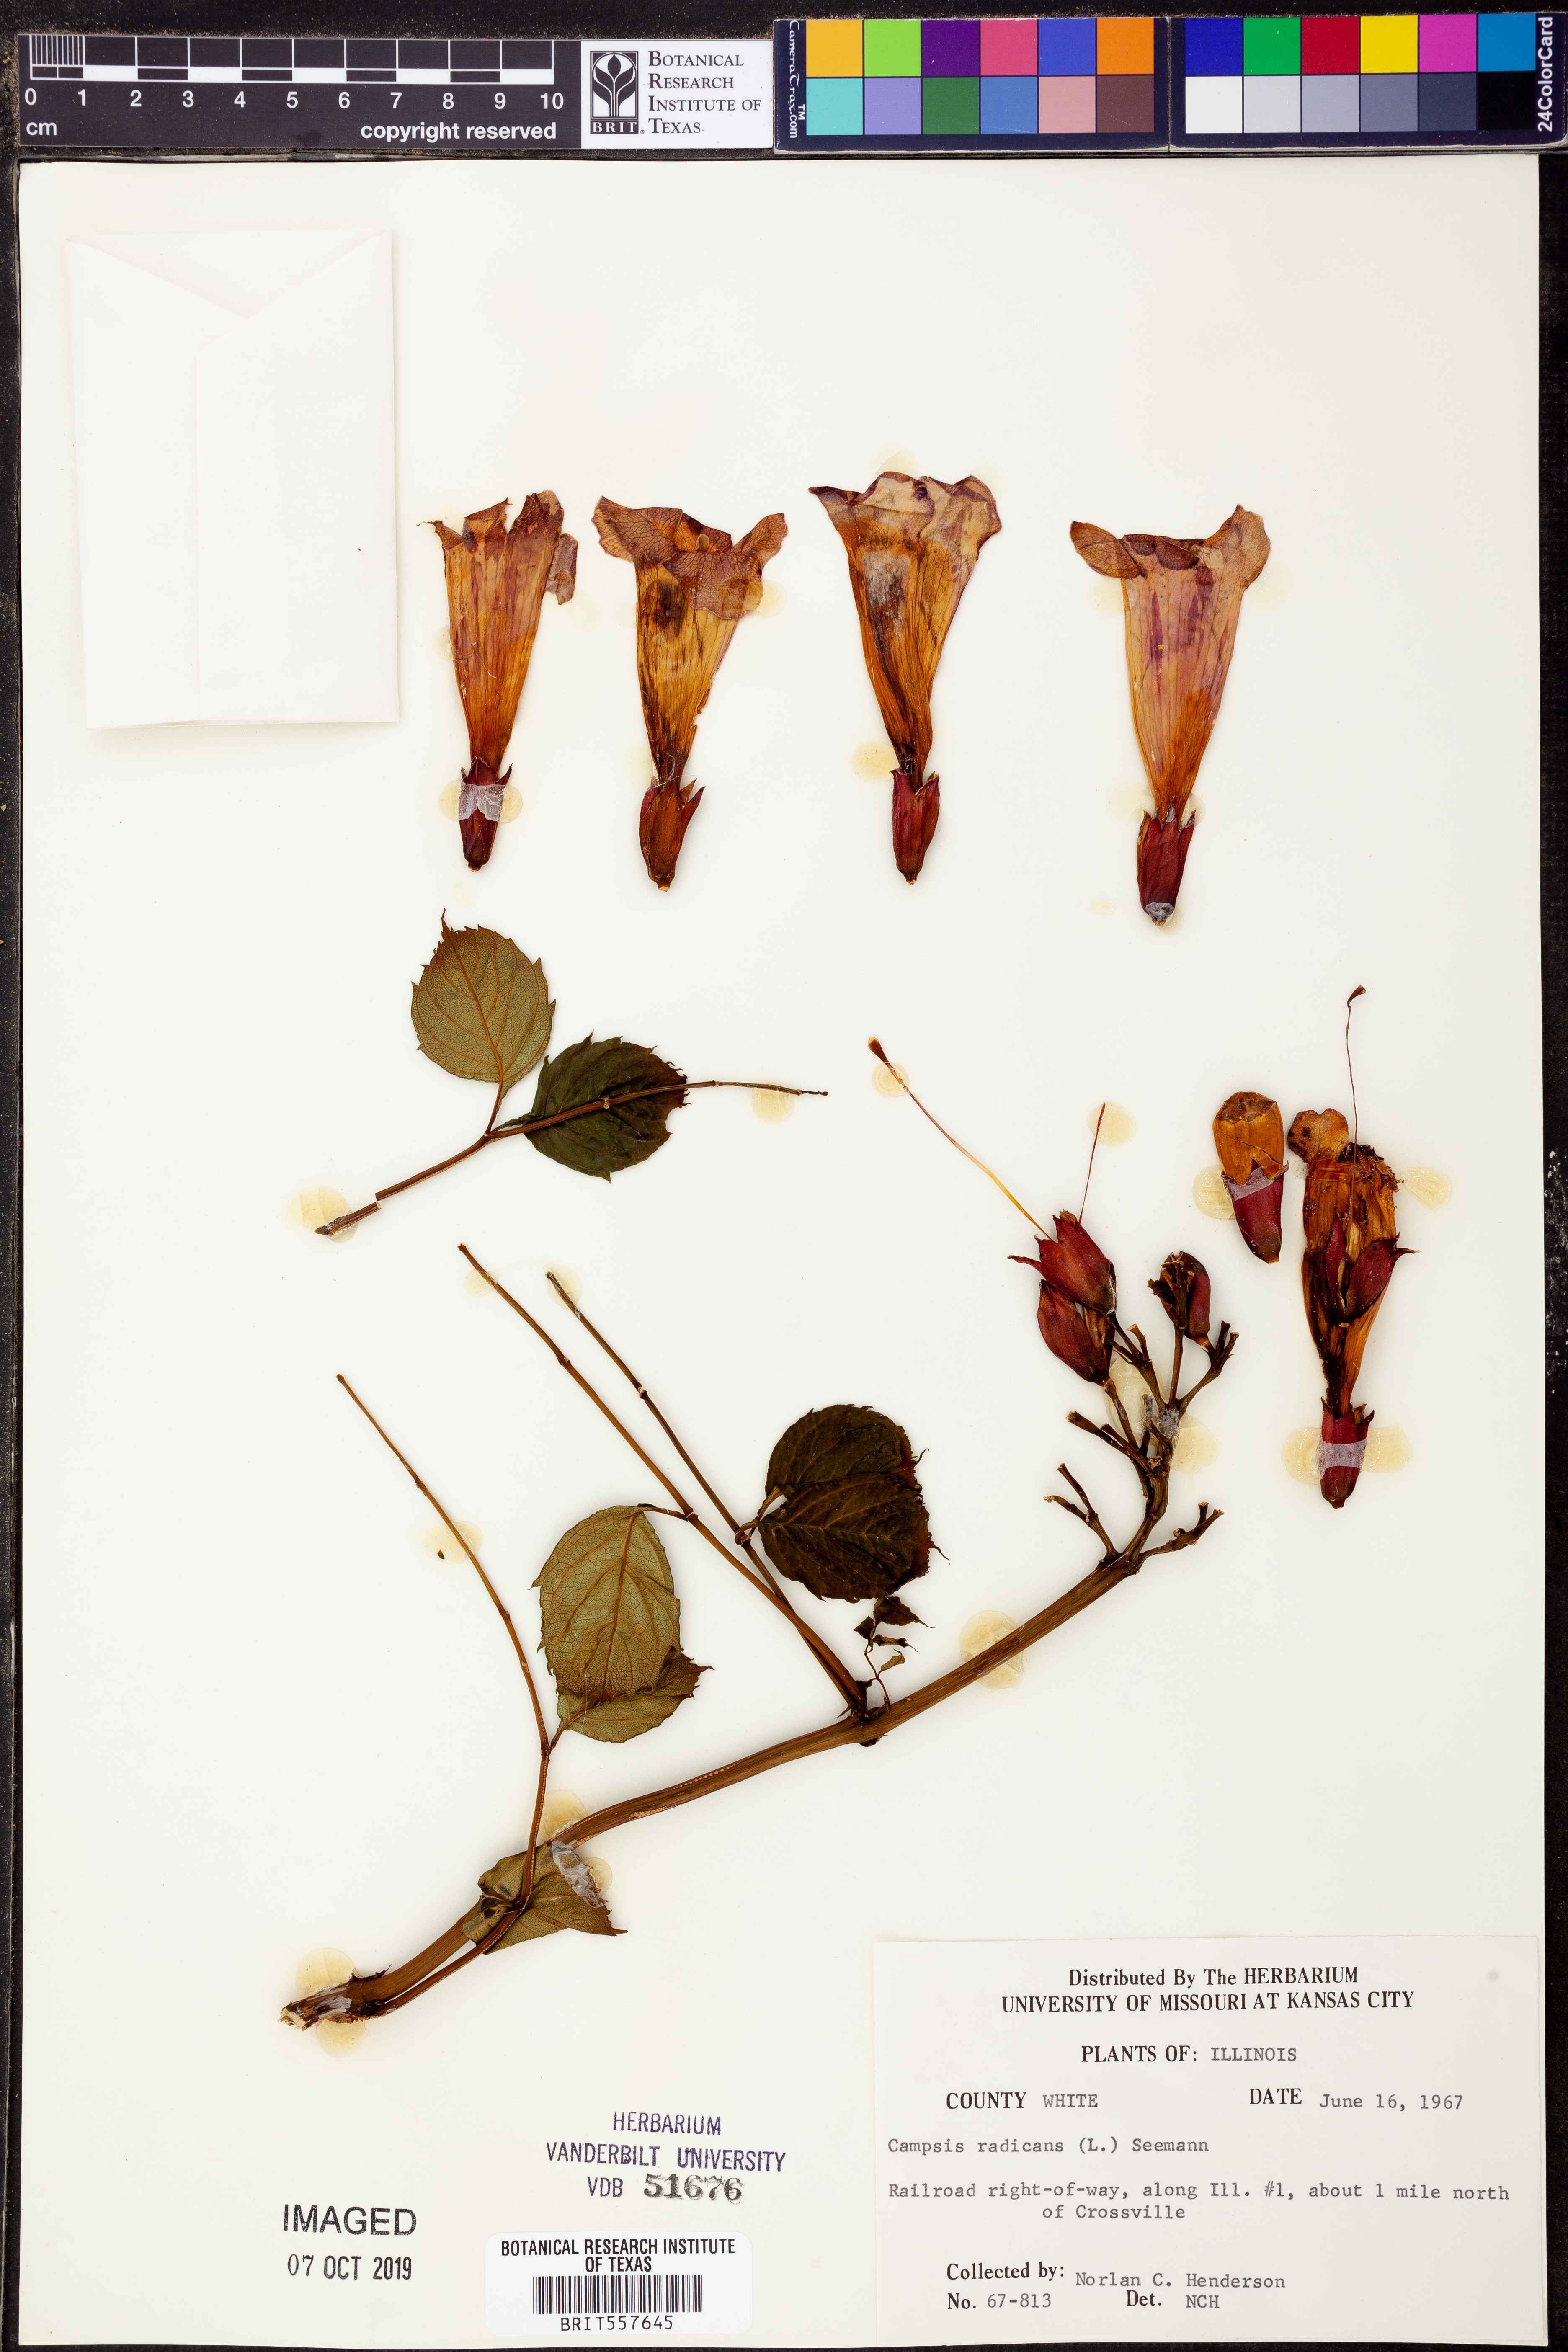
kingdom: Plantae
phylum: Tracheophyta
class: Magnoliopsida
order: Lamiales
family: Bignoniaceae
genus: Campsis
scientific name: Campsis radicans
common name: Trumpet-creeper
